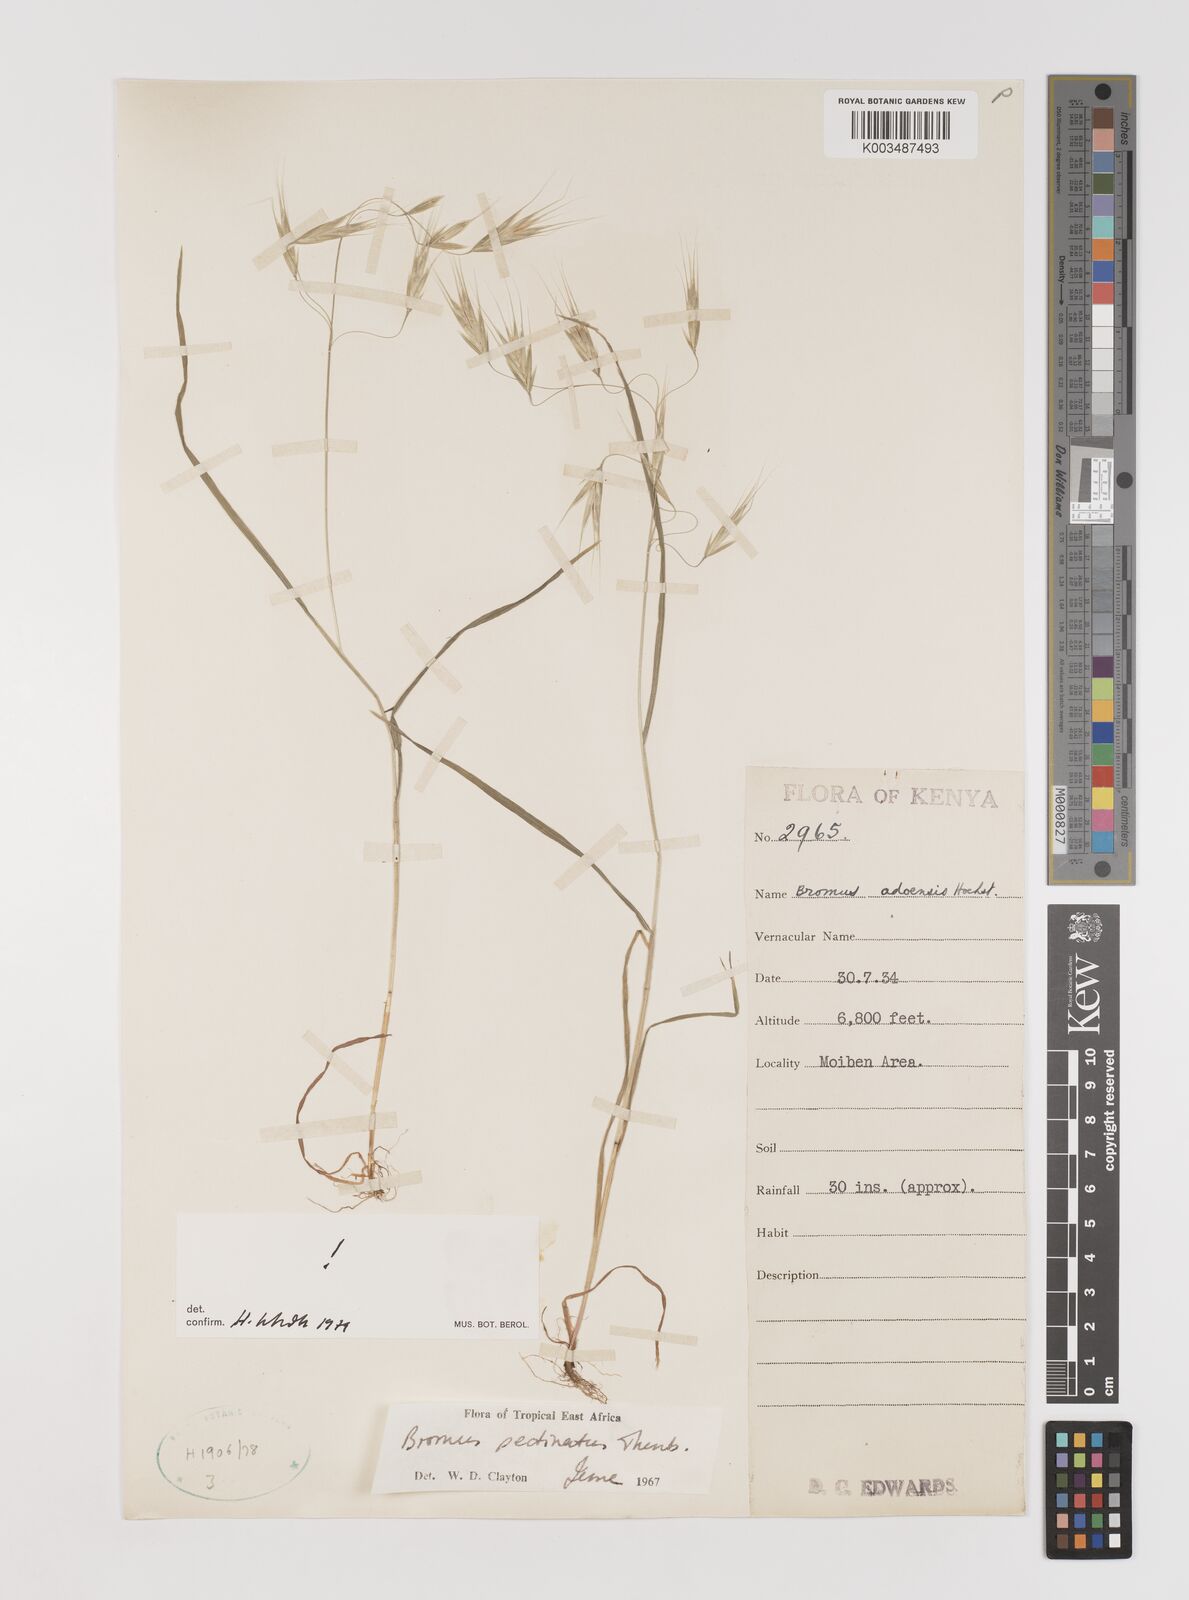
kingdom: Plantae
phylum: Tracheophyta
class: Liliopsida
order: Poales
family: Poaceae
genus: Bromus
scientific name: Bromus pectinatus
